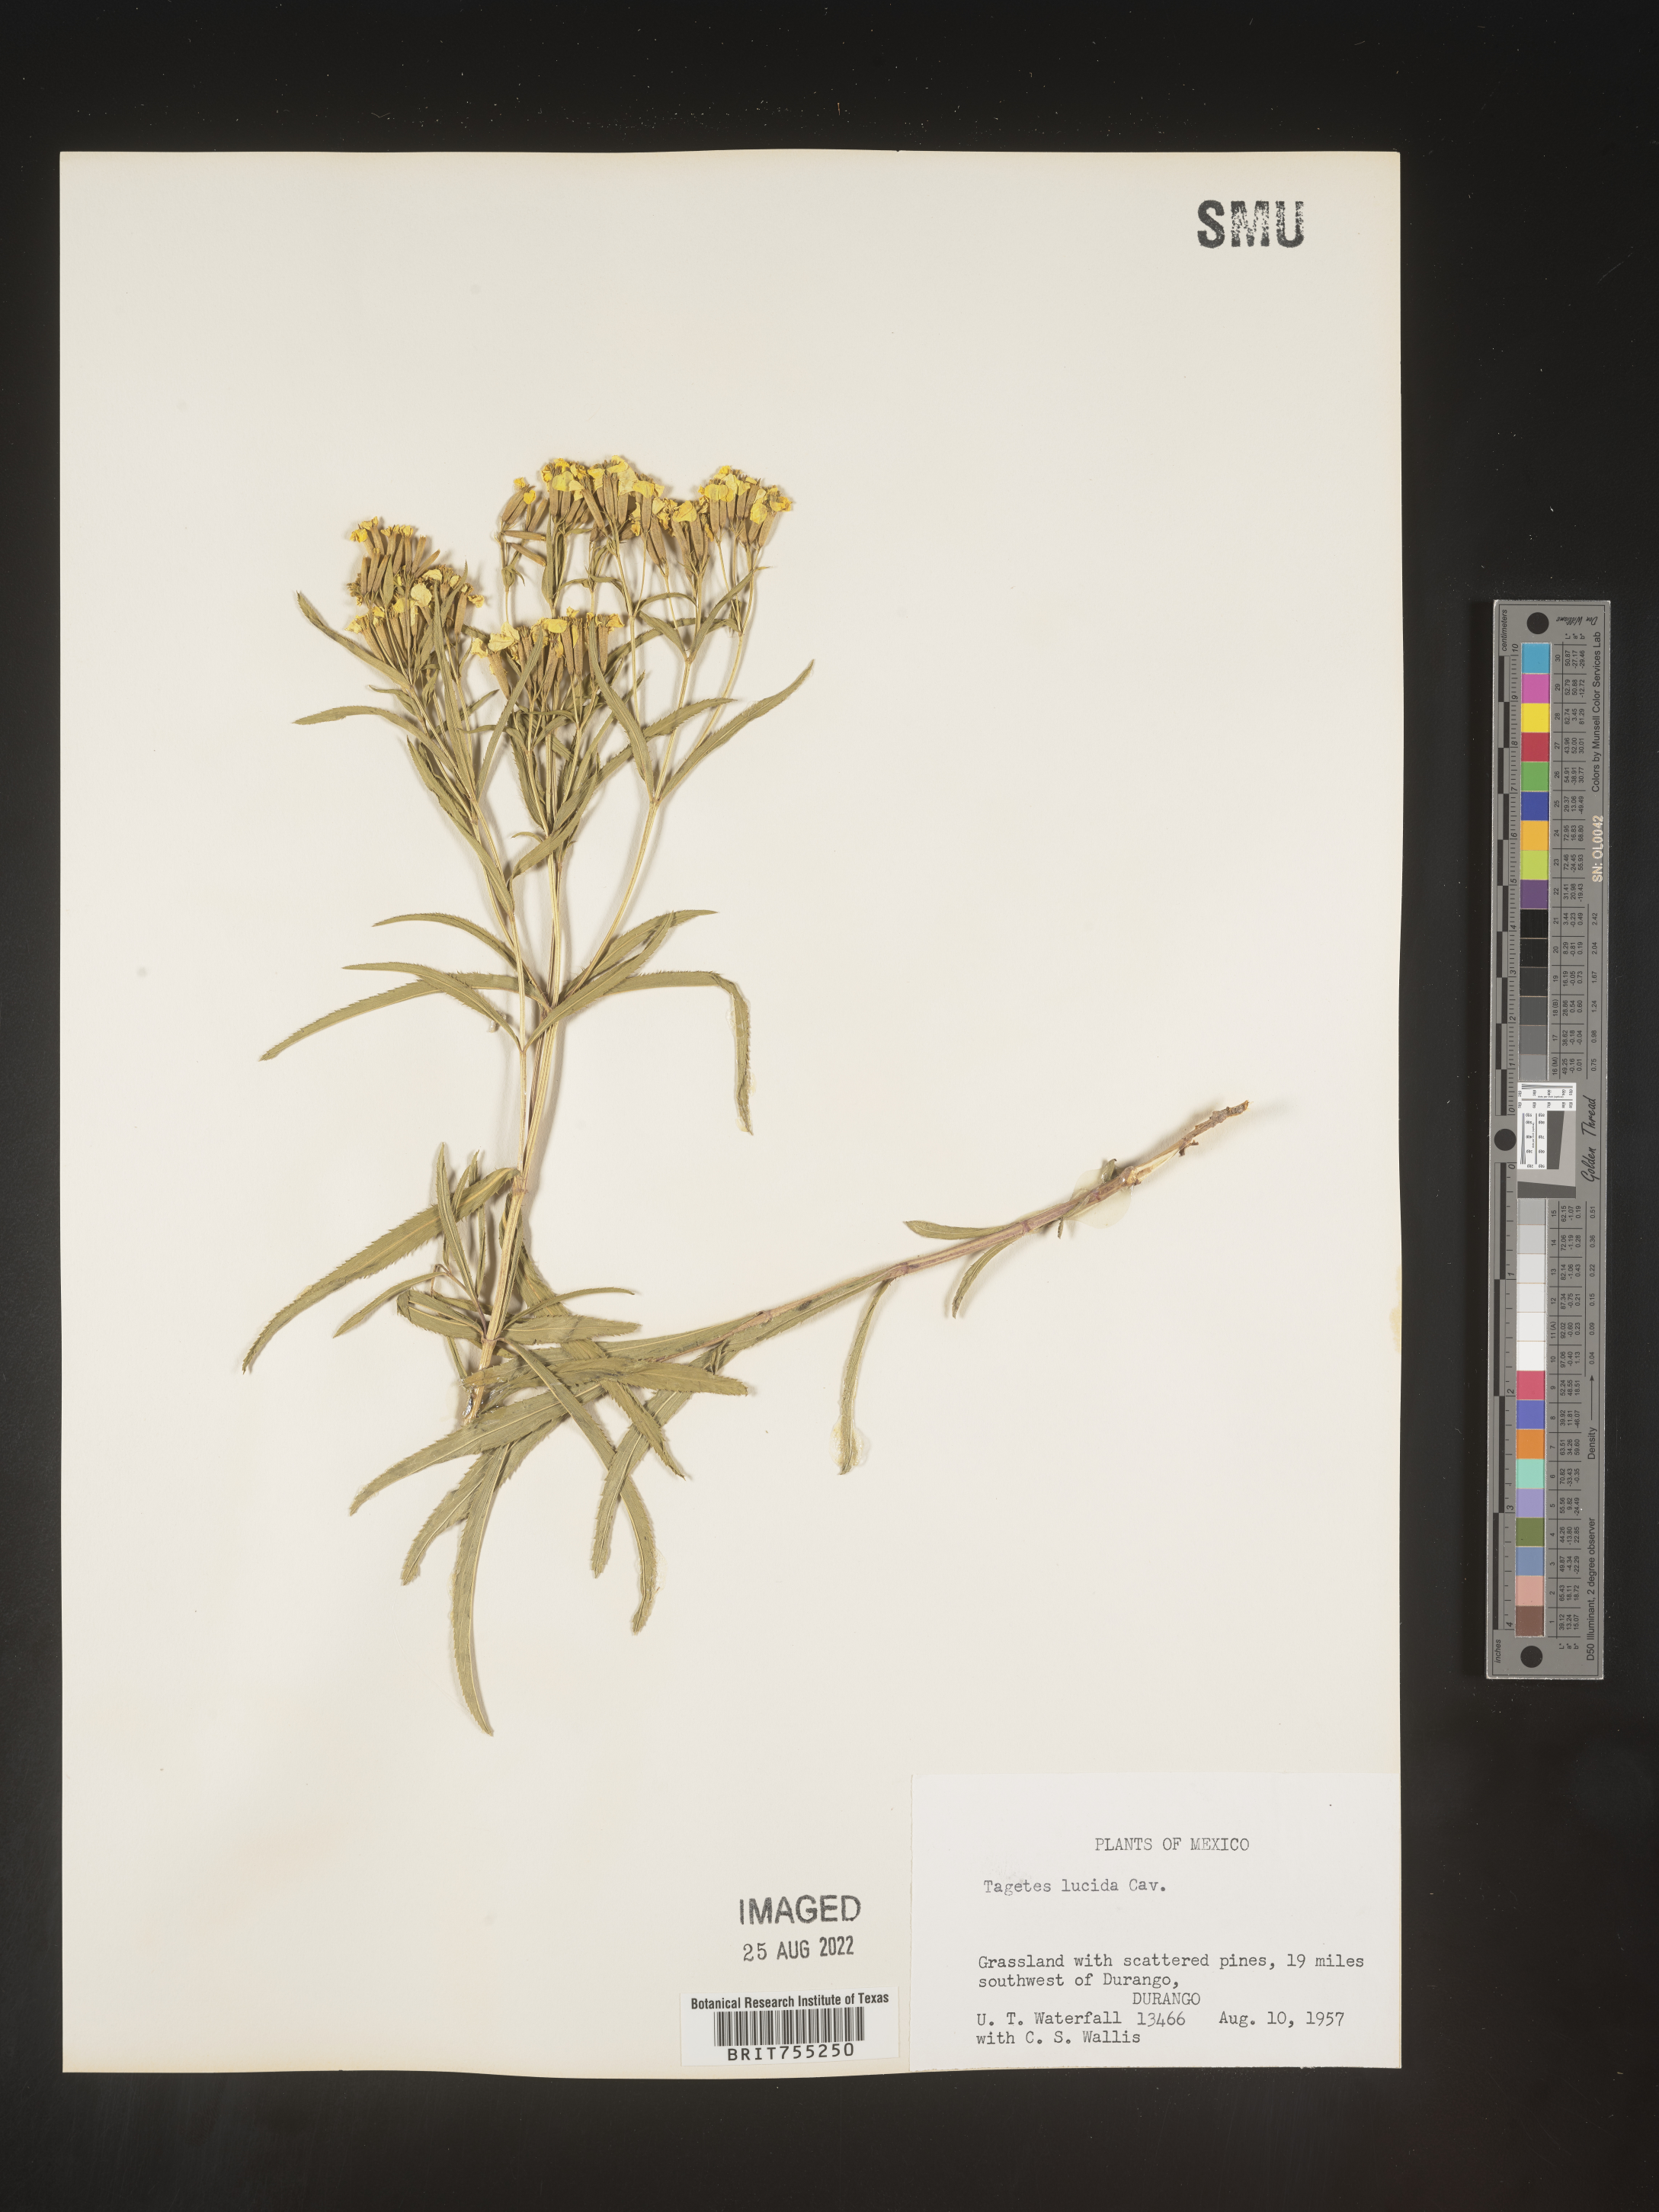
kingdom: Plantae
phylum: Tracheophyta
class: Magnoliopsida
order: Asterales
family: Asteraceae
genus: Tagetes
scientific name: Tagetes lucida
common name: Sweetscented marigold
